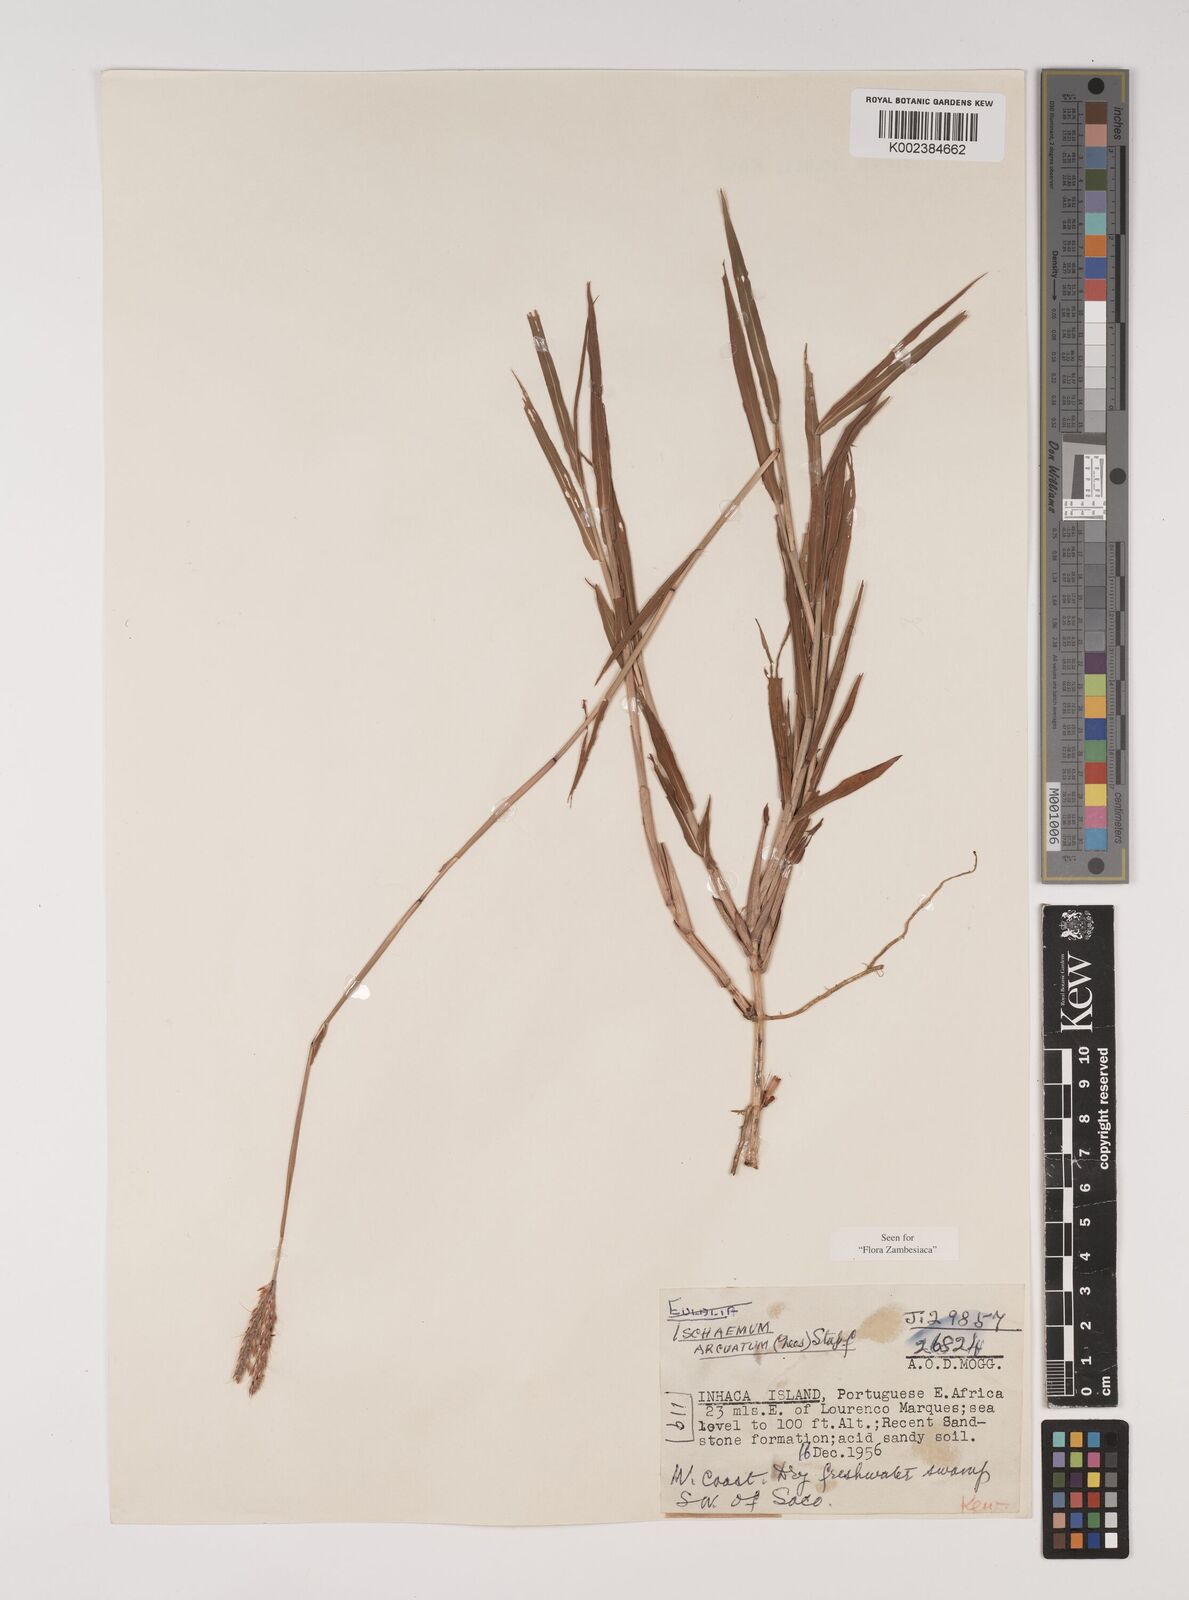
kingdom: Plantae
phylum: Tracheophyta
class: Liliopsida
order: Poales
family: Poaceae
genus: Ischaemum
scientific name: Ischaemum
